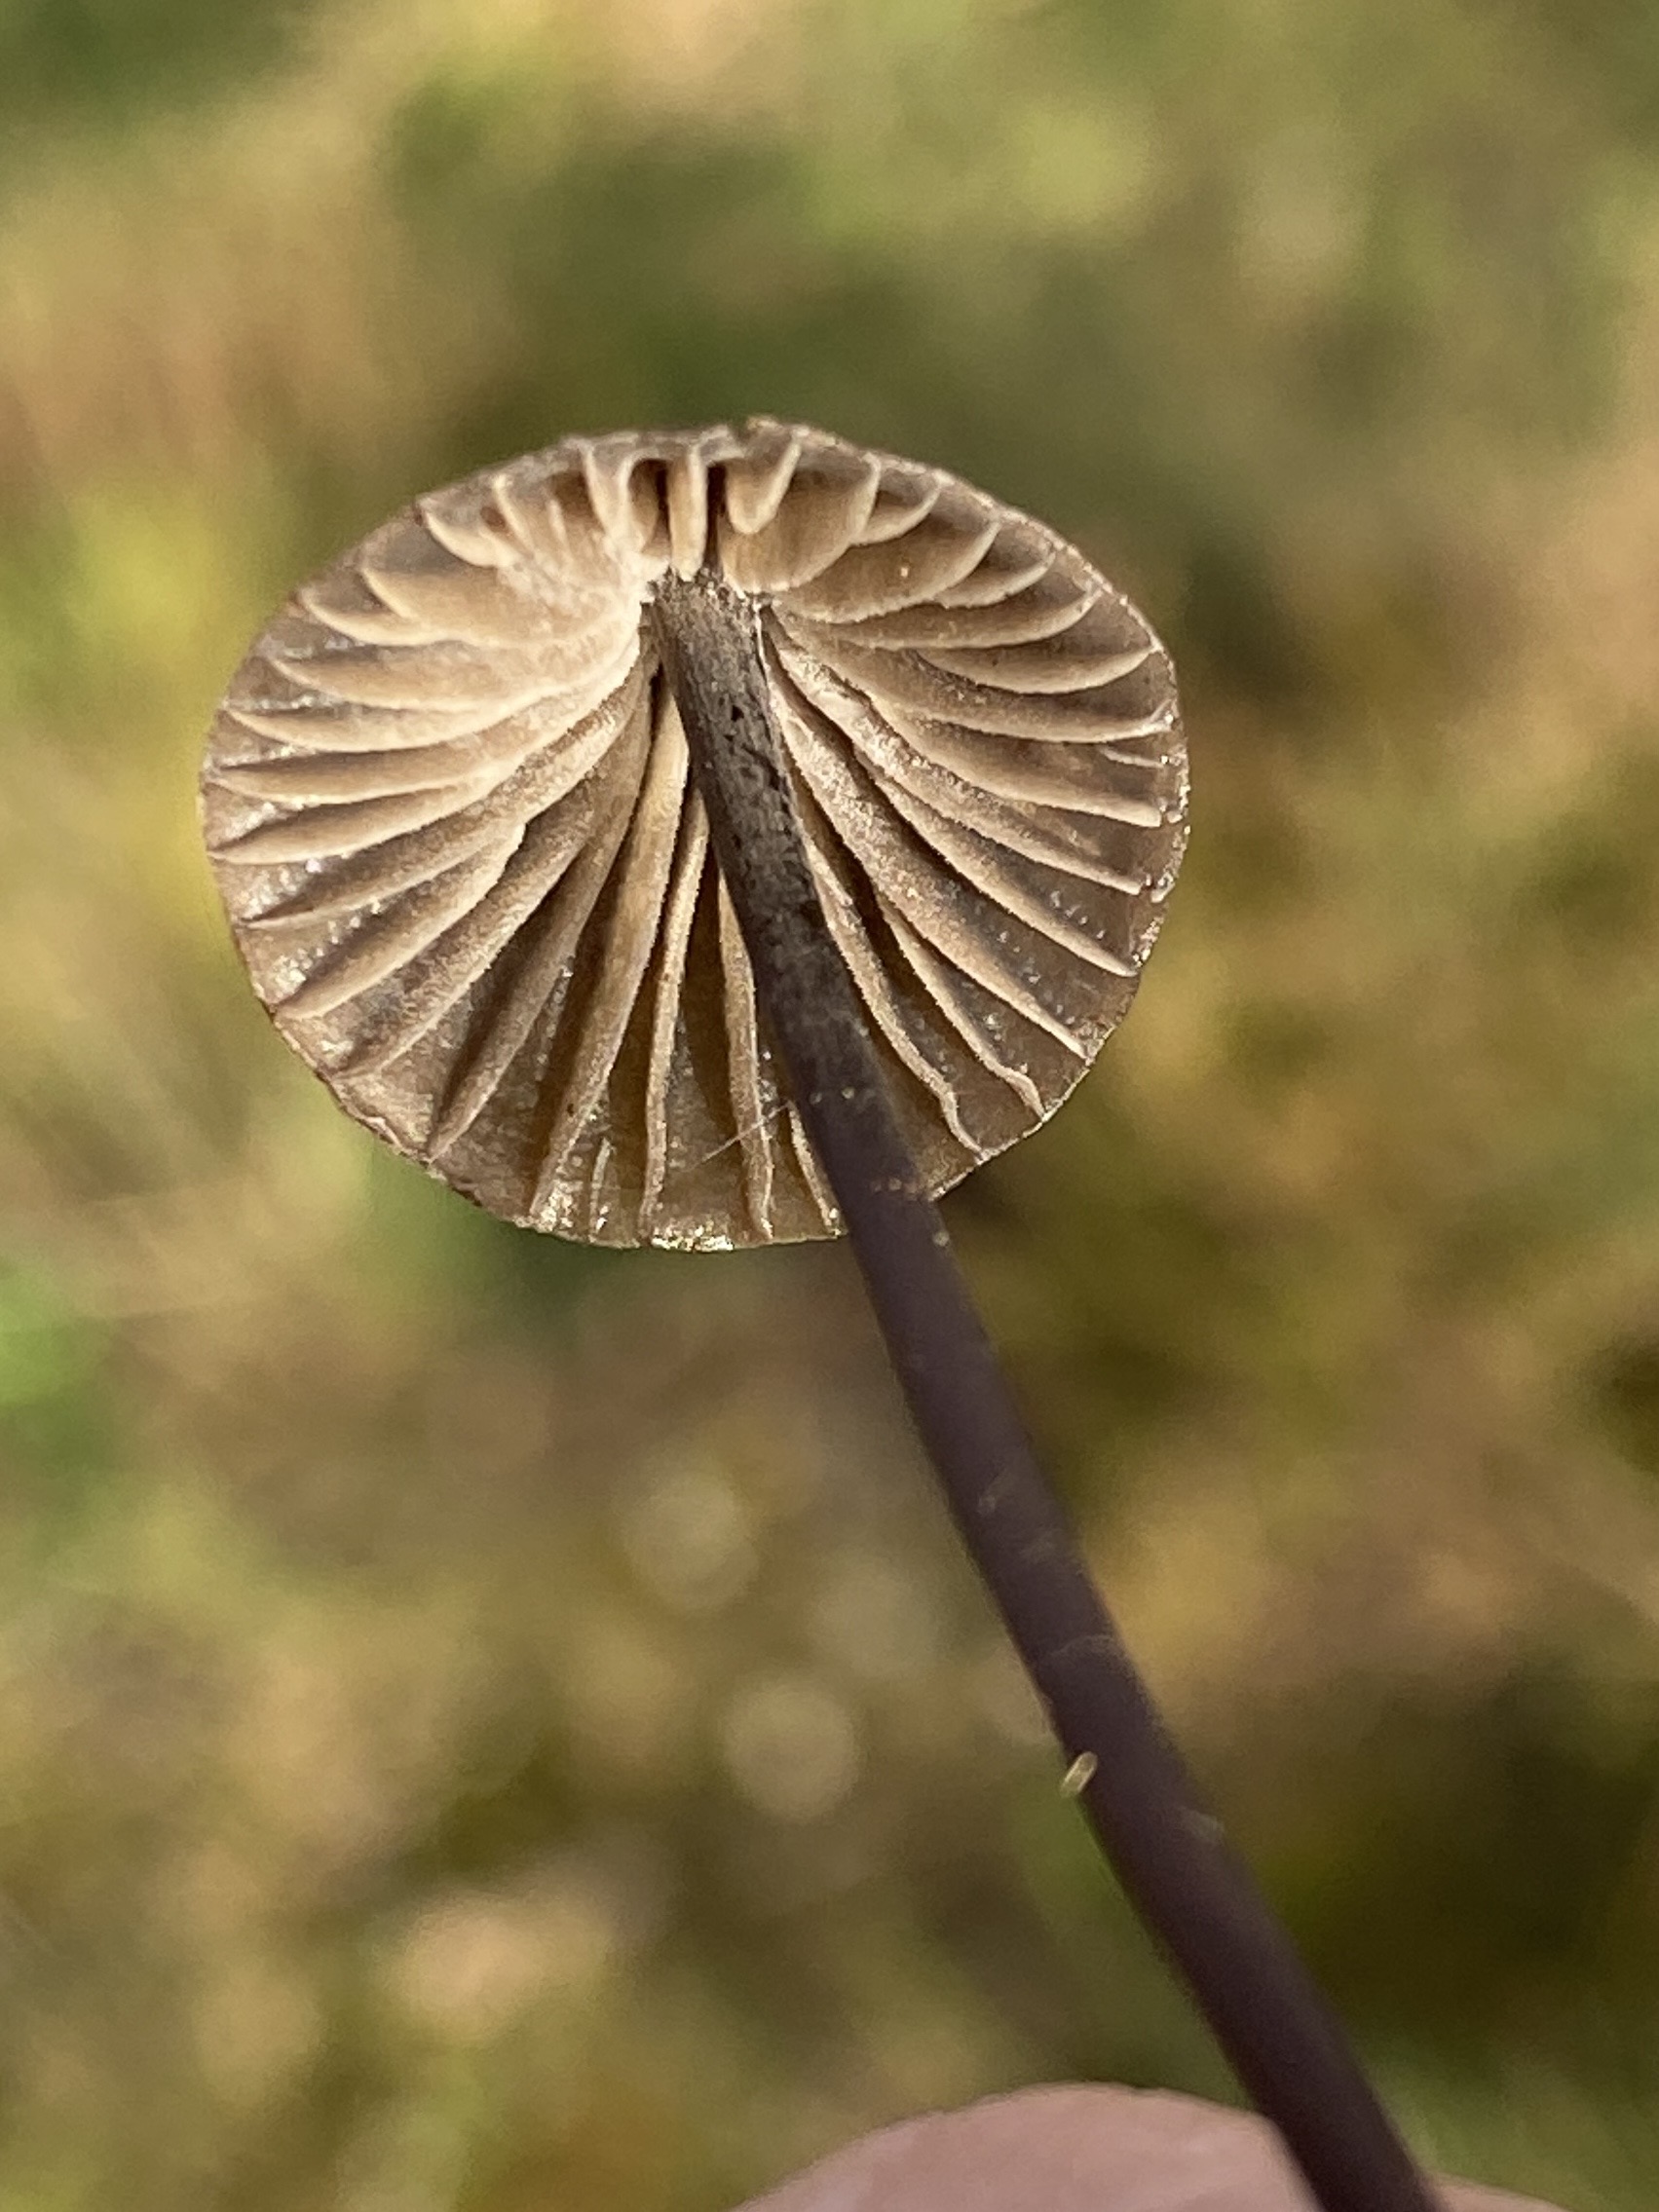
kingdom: Fungi
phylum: Basidiomycota
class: Agaricomycetes
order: Agaricales
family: Mycenaceae
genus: Mycena
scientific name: Mycena galopus
